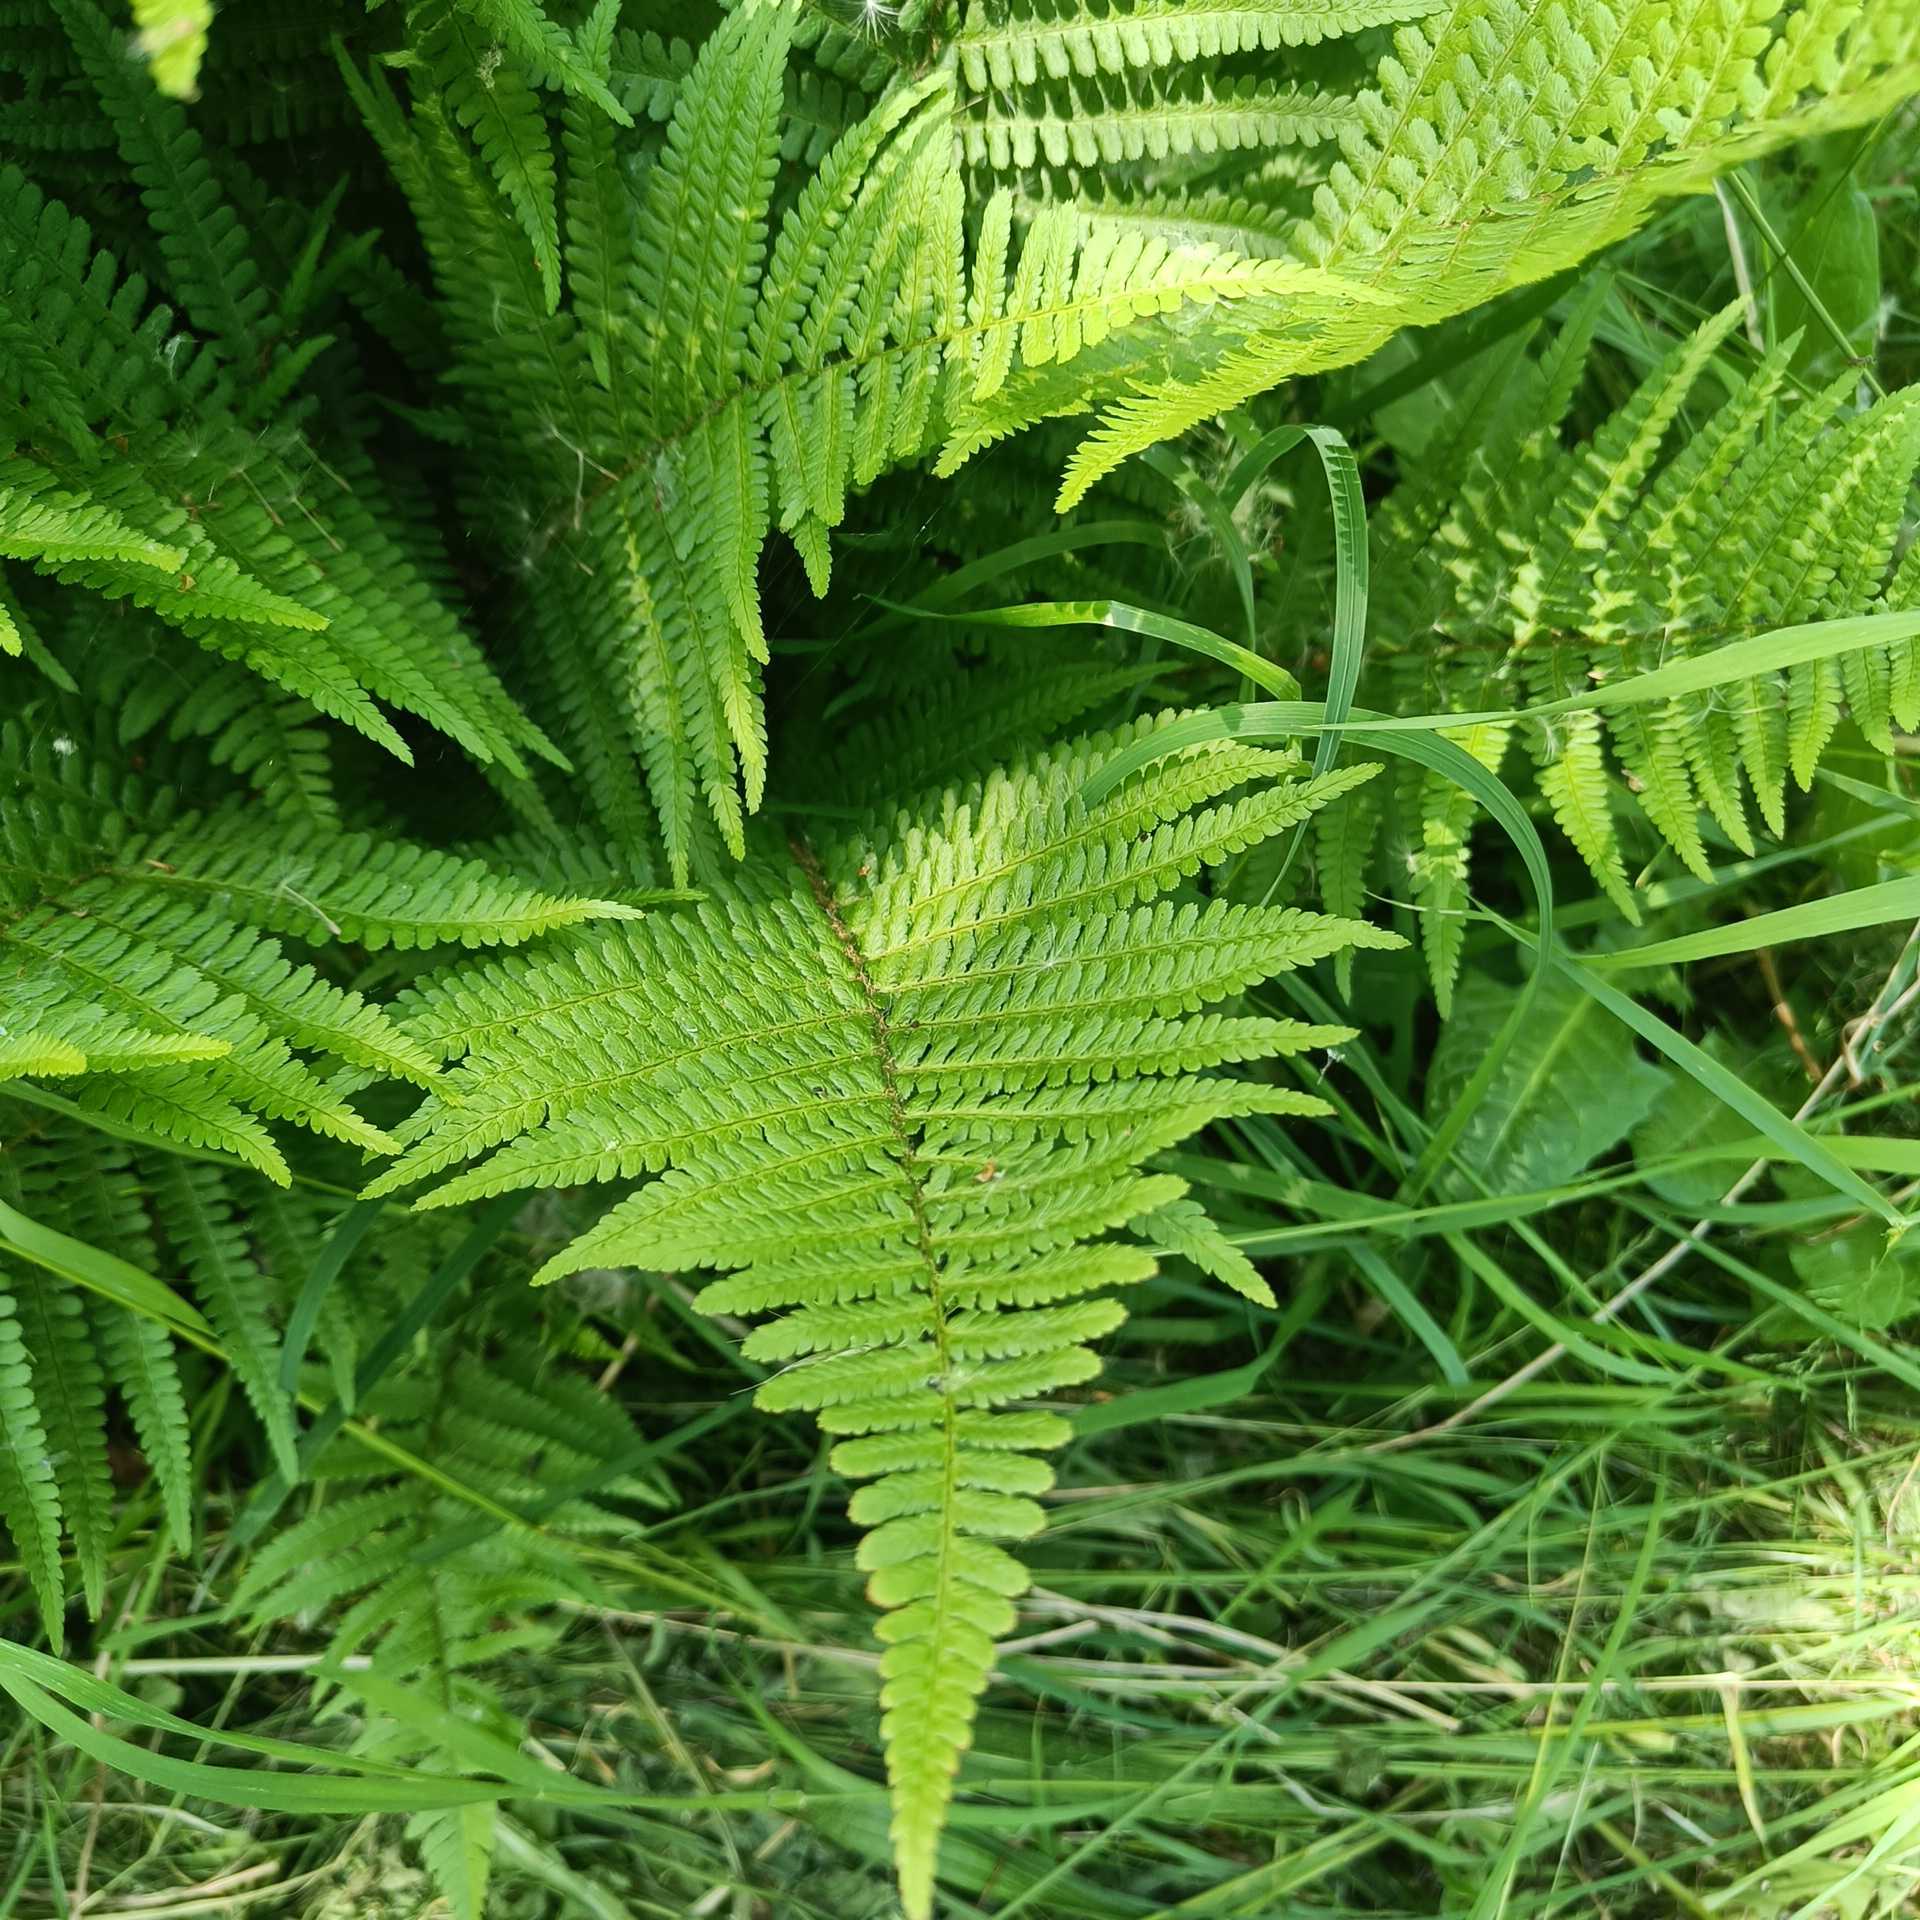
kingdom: Plantae
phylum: Tracheophyta
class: Polypodiopsida
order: Polypodiales
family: Dryopteridaceae
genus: Dryopteris
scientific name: Dryopteris filix-mas
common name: Almindelig mangeløv
